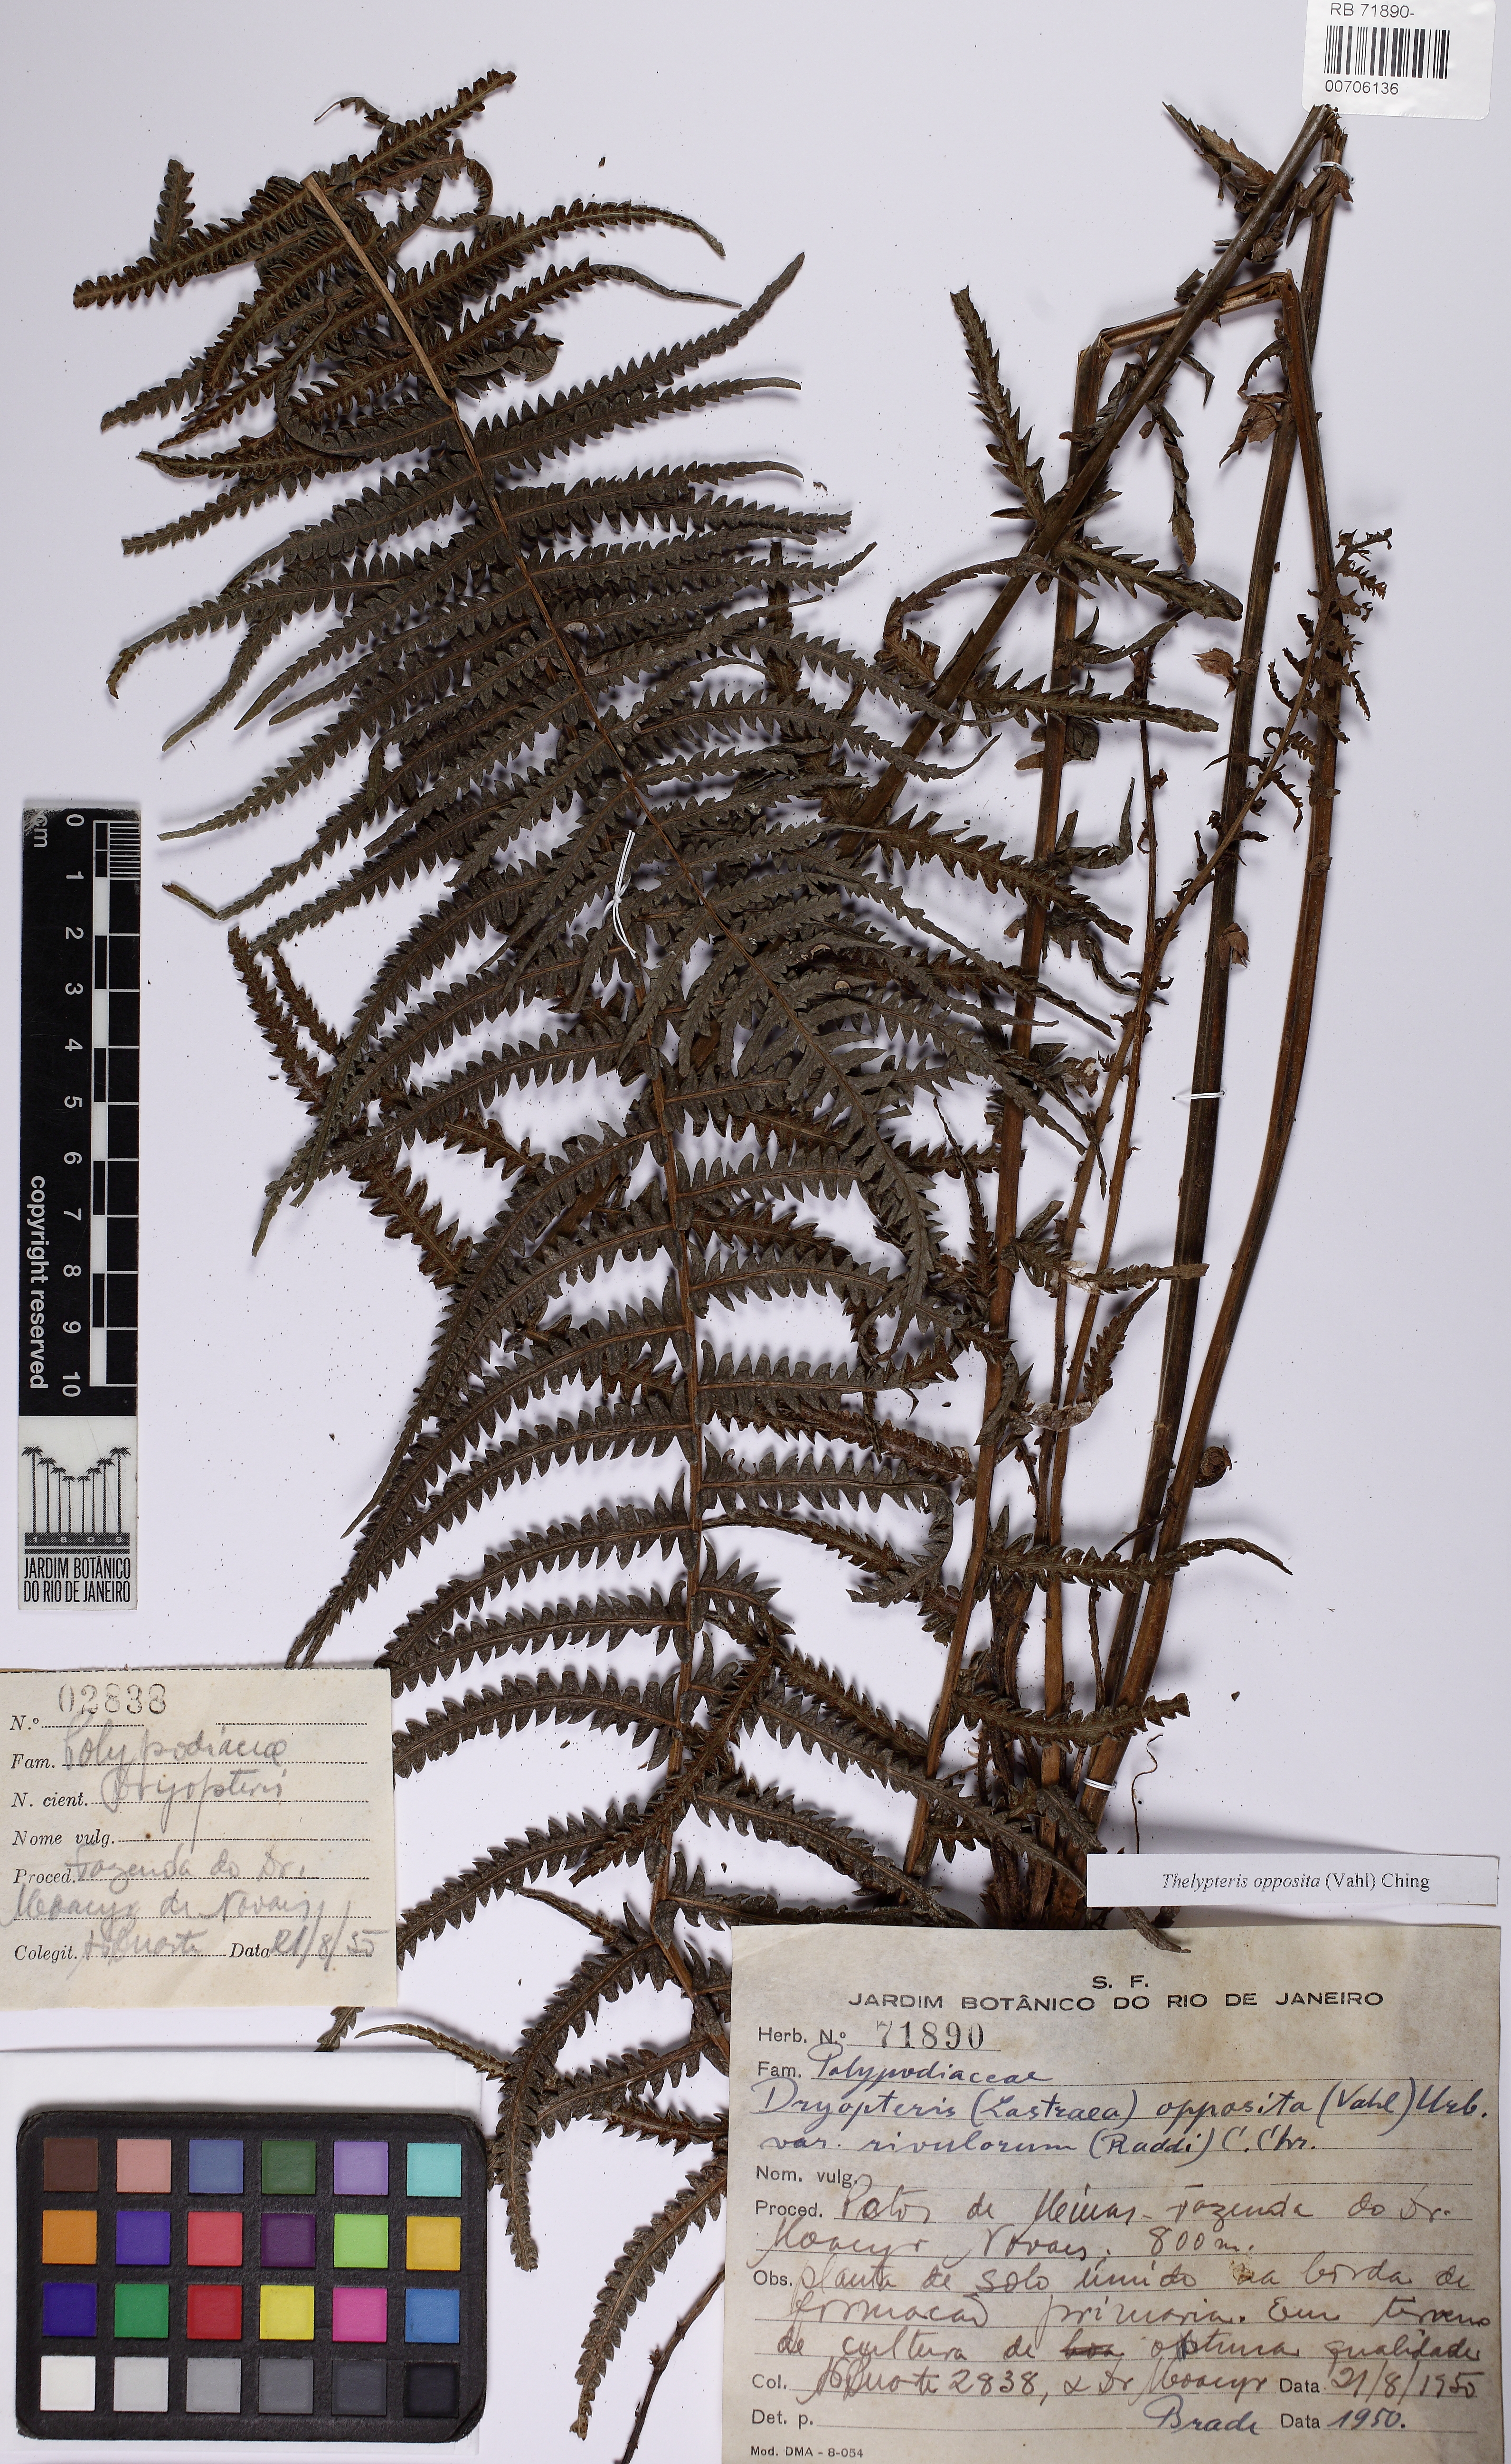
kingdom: Plantae
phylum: Tracheophyta
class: Polypodiopsida
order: Polypodiales
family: Thelypteridaceae
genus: Amauropelta
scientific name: Amauropelta opposita
